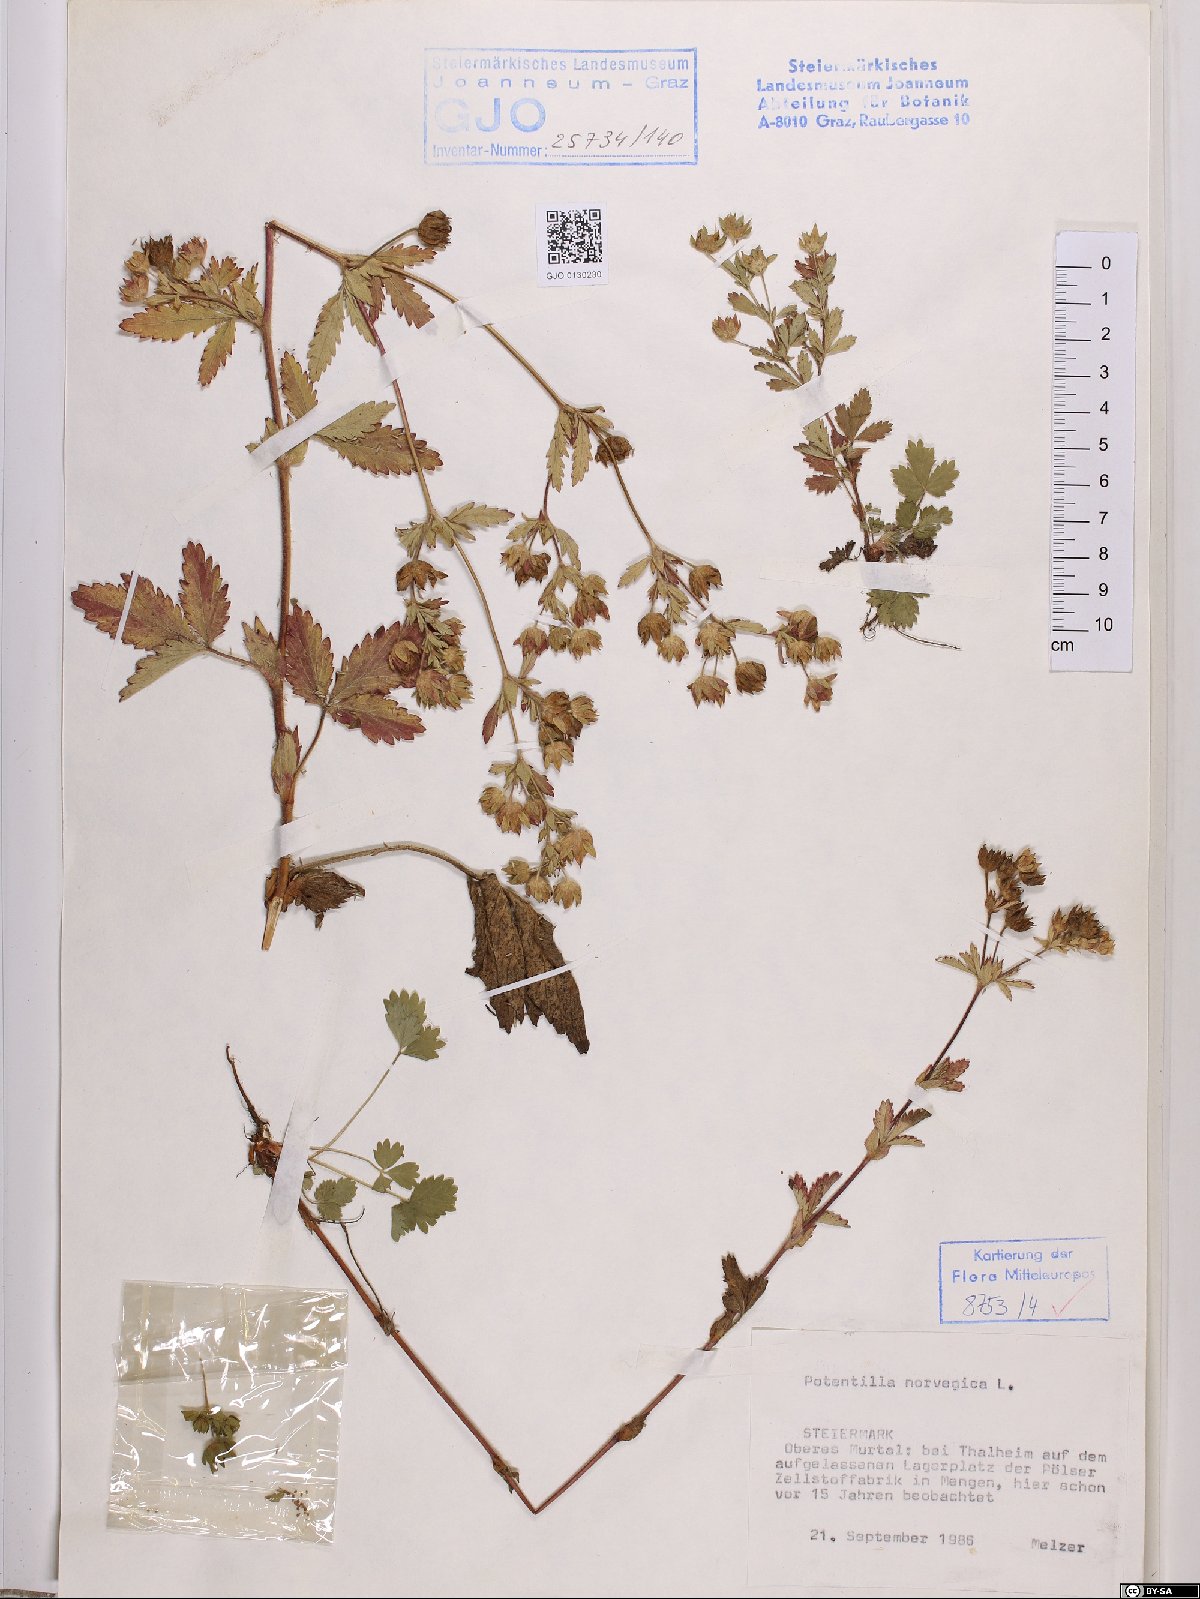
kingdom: Plantae
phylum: Tracheophyta
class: Magnoliopsida
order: Rosales
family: Rosaceae
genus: Potentilla
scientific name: Potentilla norvegica
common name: Ternate-leaved cinquefoil
